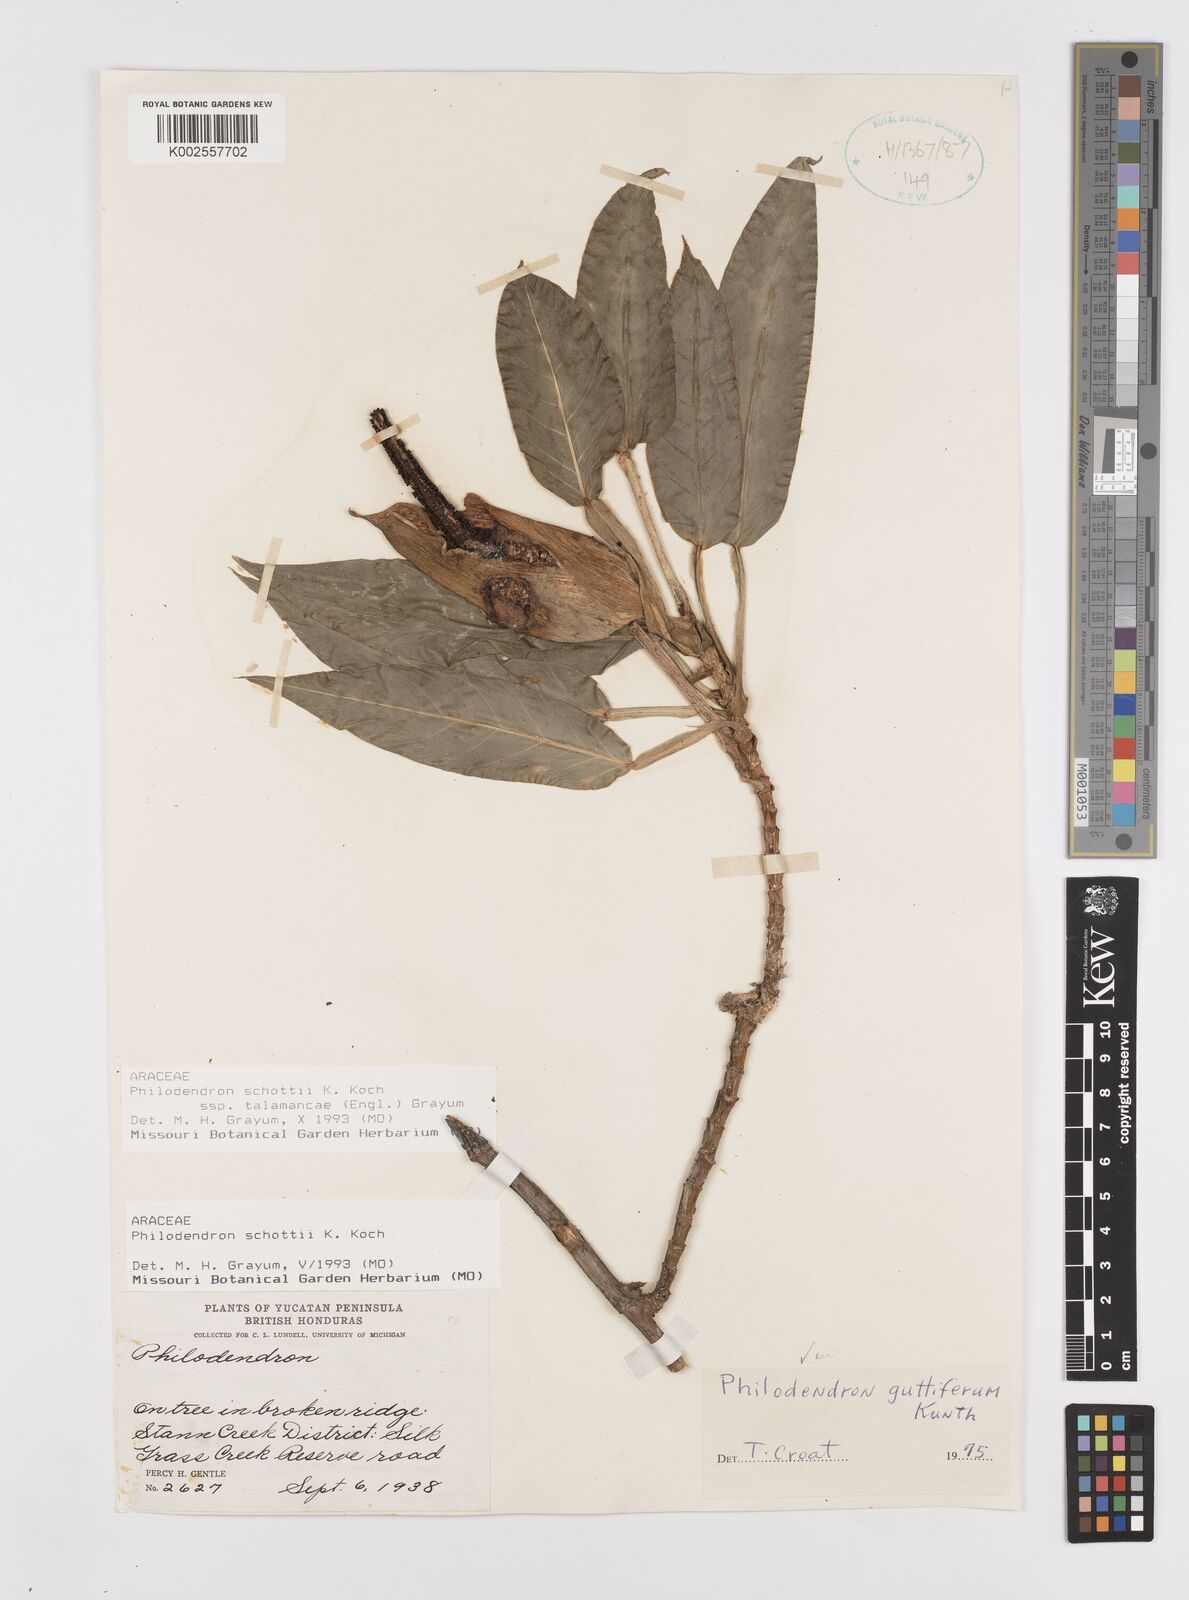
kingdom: Plantae
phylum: Tracheophyta
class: Liliopsida
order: Alismatales
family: Araceae
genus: Philodendron
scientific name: Philodendron schottii
